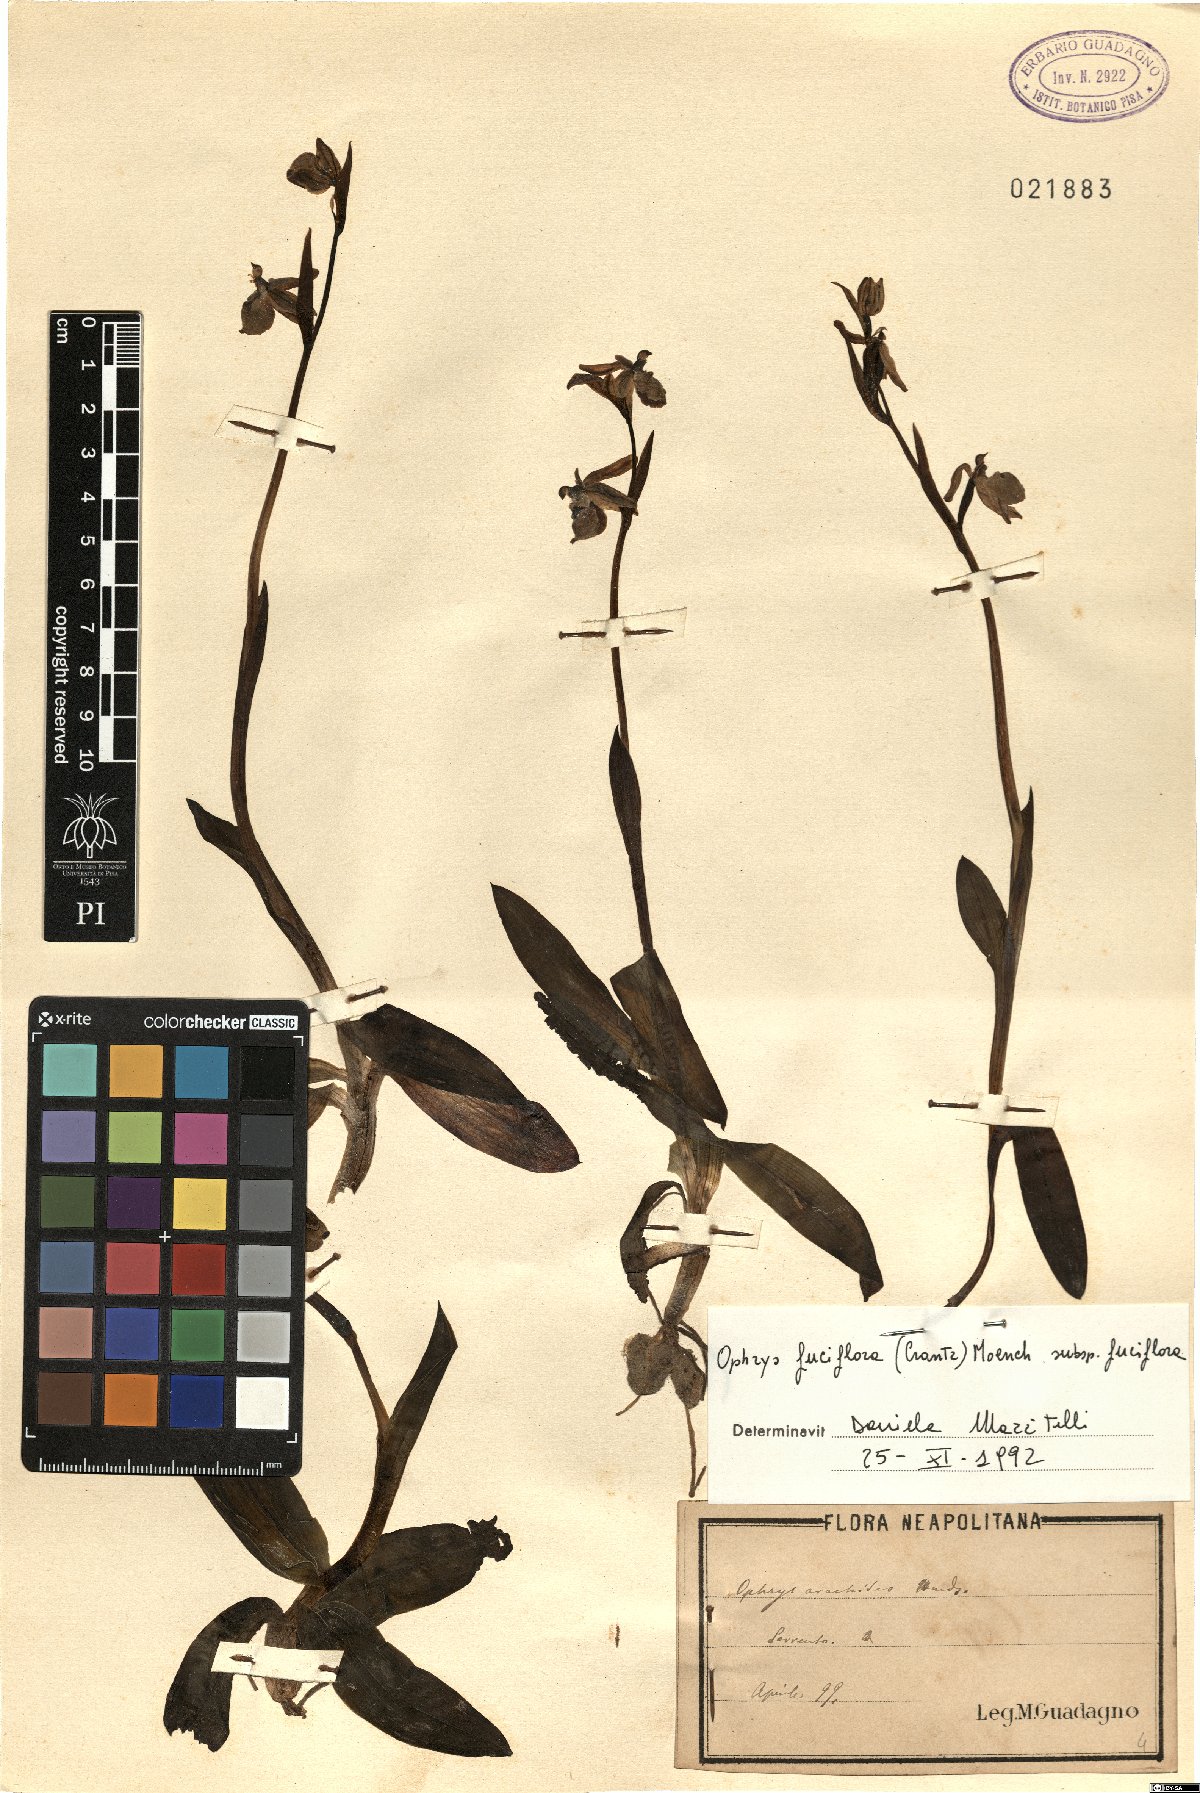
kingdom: Plantae
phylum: Tracheophyta
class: Liliopsida
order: Asparagales
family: Orchidaceae
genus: Ophrys
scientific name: Ophrys holosericea
